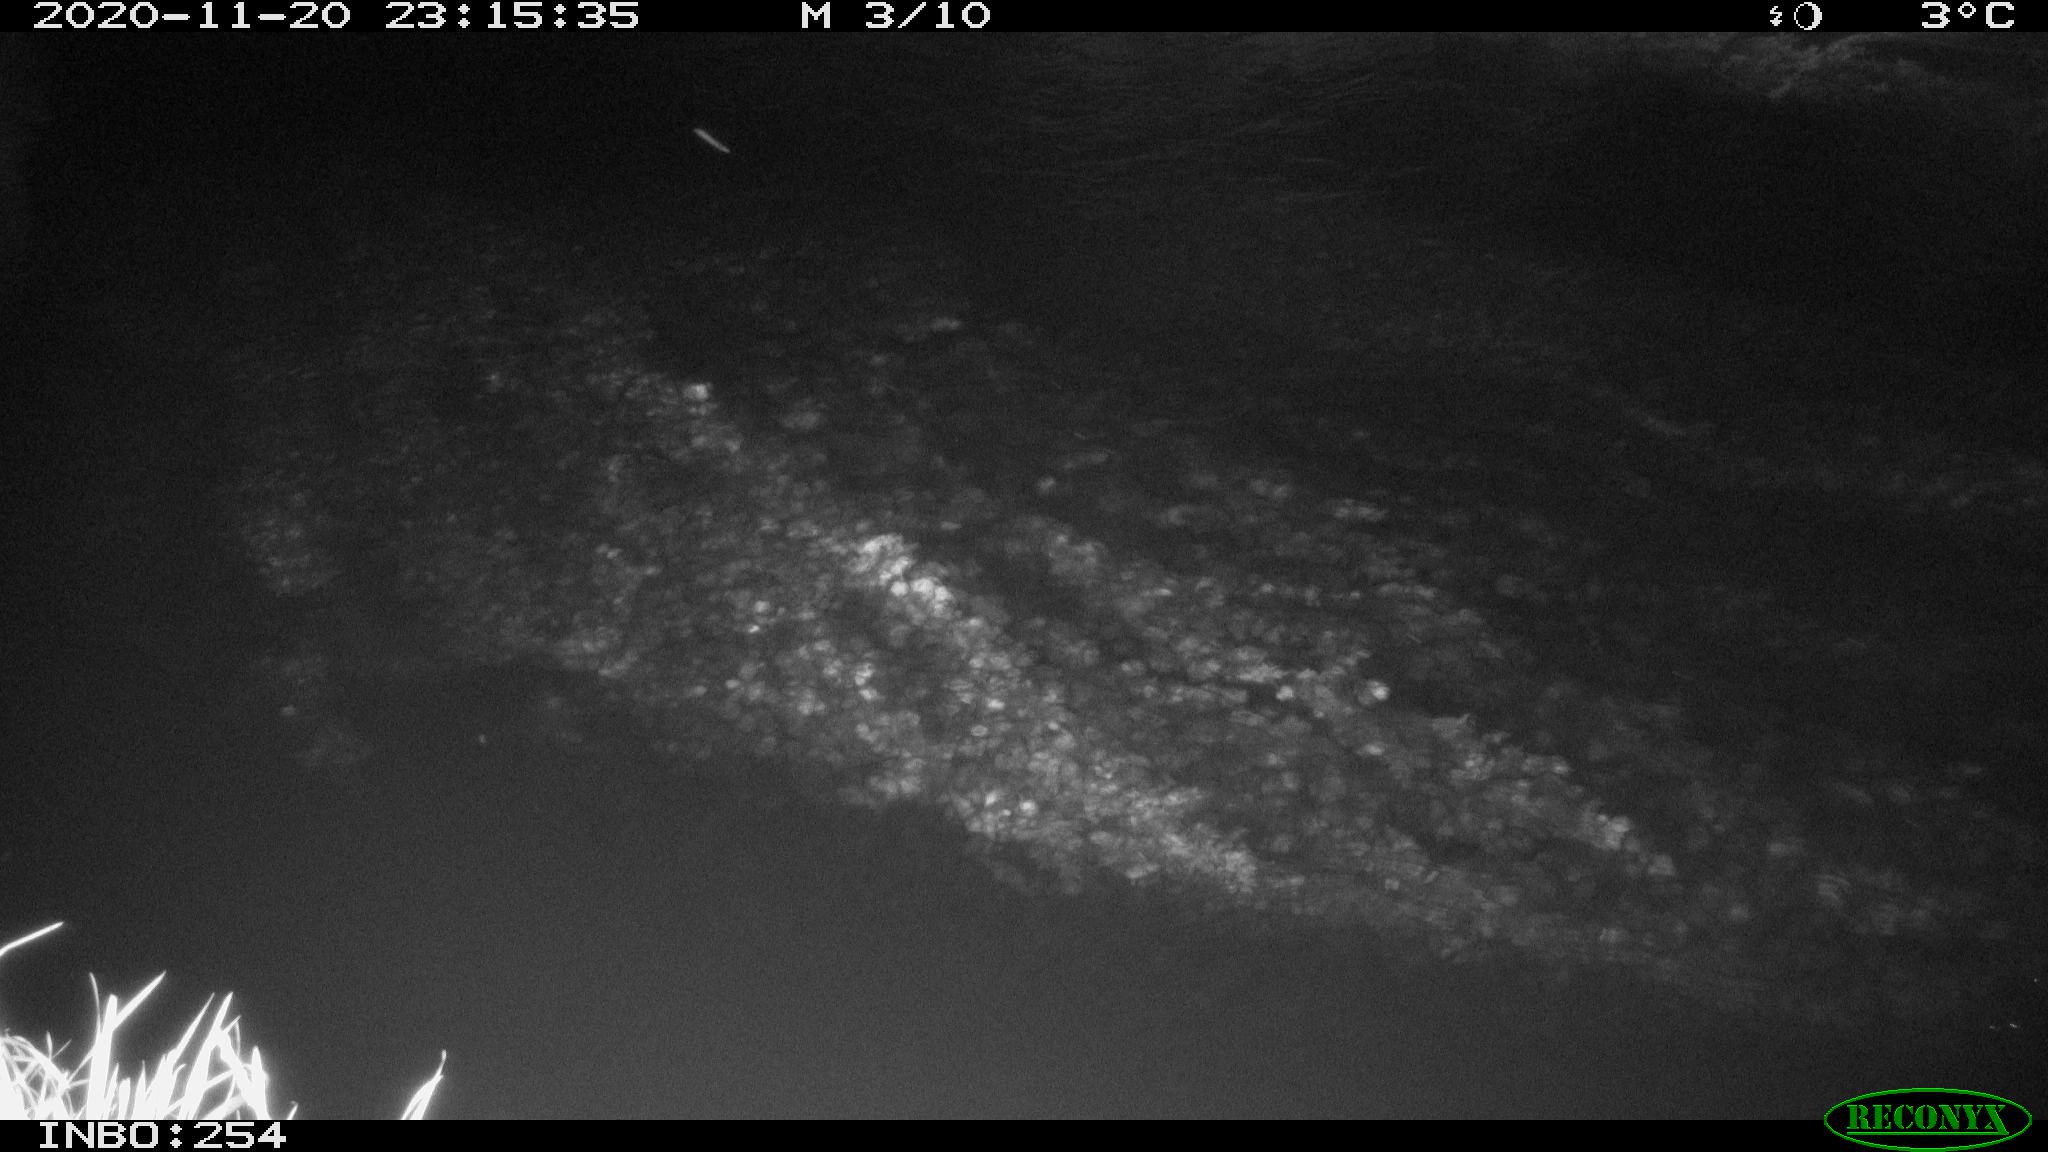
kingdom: Animalia
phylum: Chordata
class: Aves
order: Anseriformes
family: Anatidae
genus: Anas
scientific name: Anas platyrhynchos
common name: Mallard
